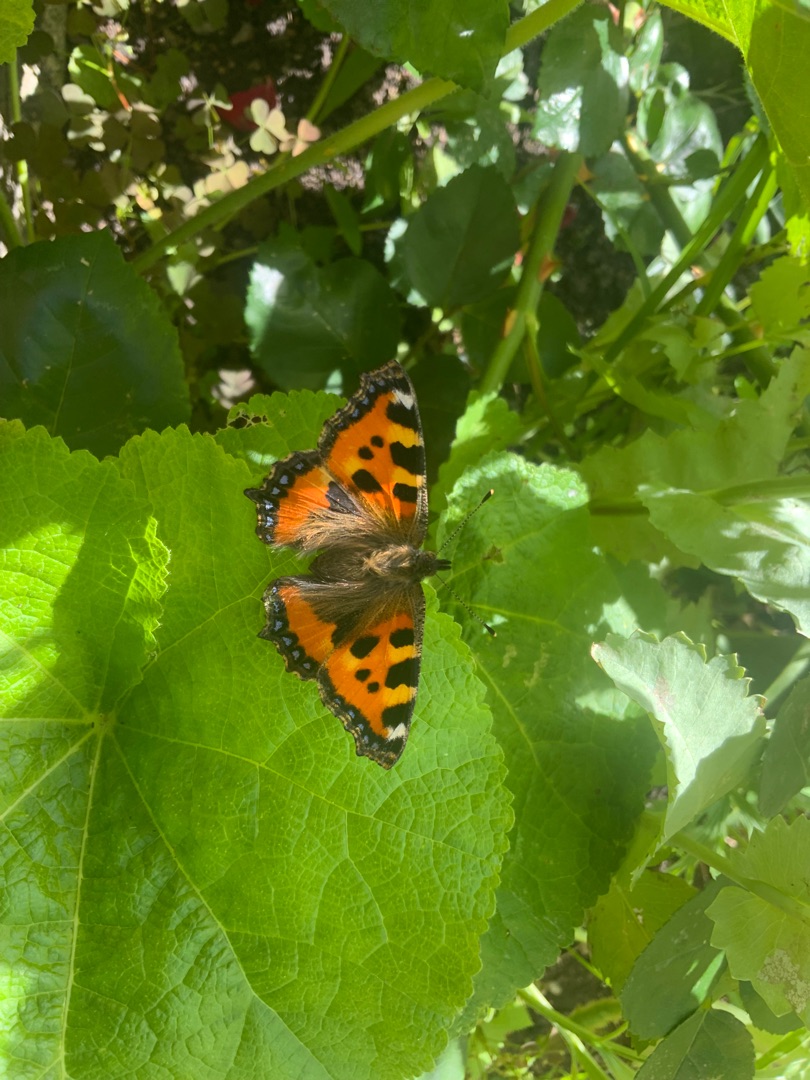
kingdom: Animalia
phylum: Arthropoda
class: Insecta
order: Lepidoptera
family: Nymphalidae
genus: Aglais
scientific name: Aglais urticae
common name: Nældens takvinge
